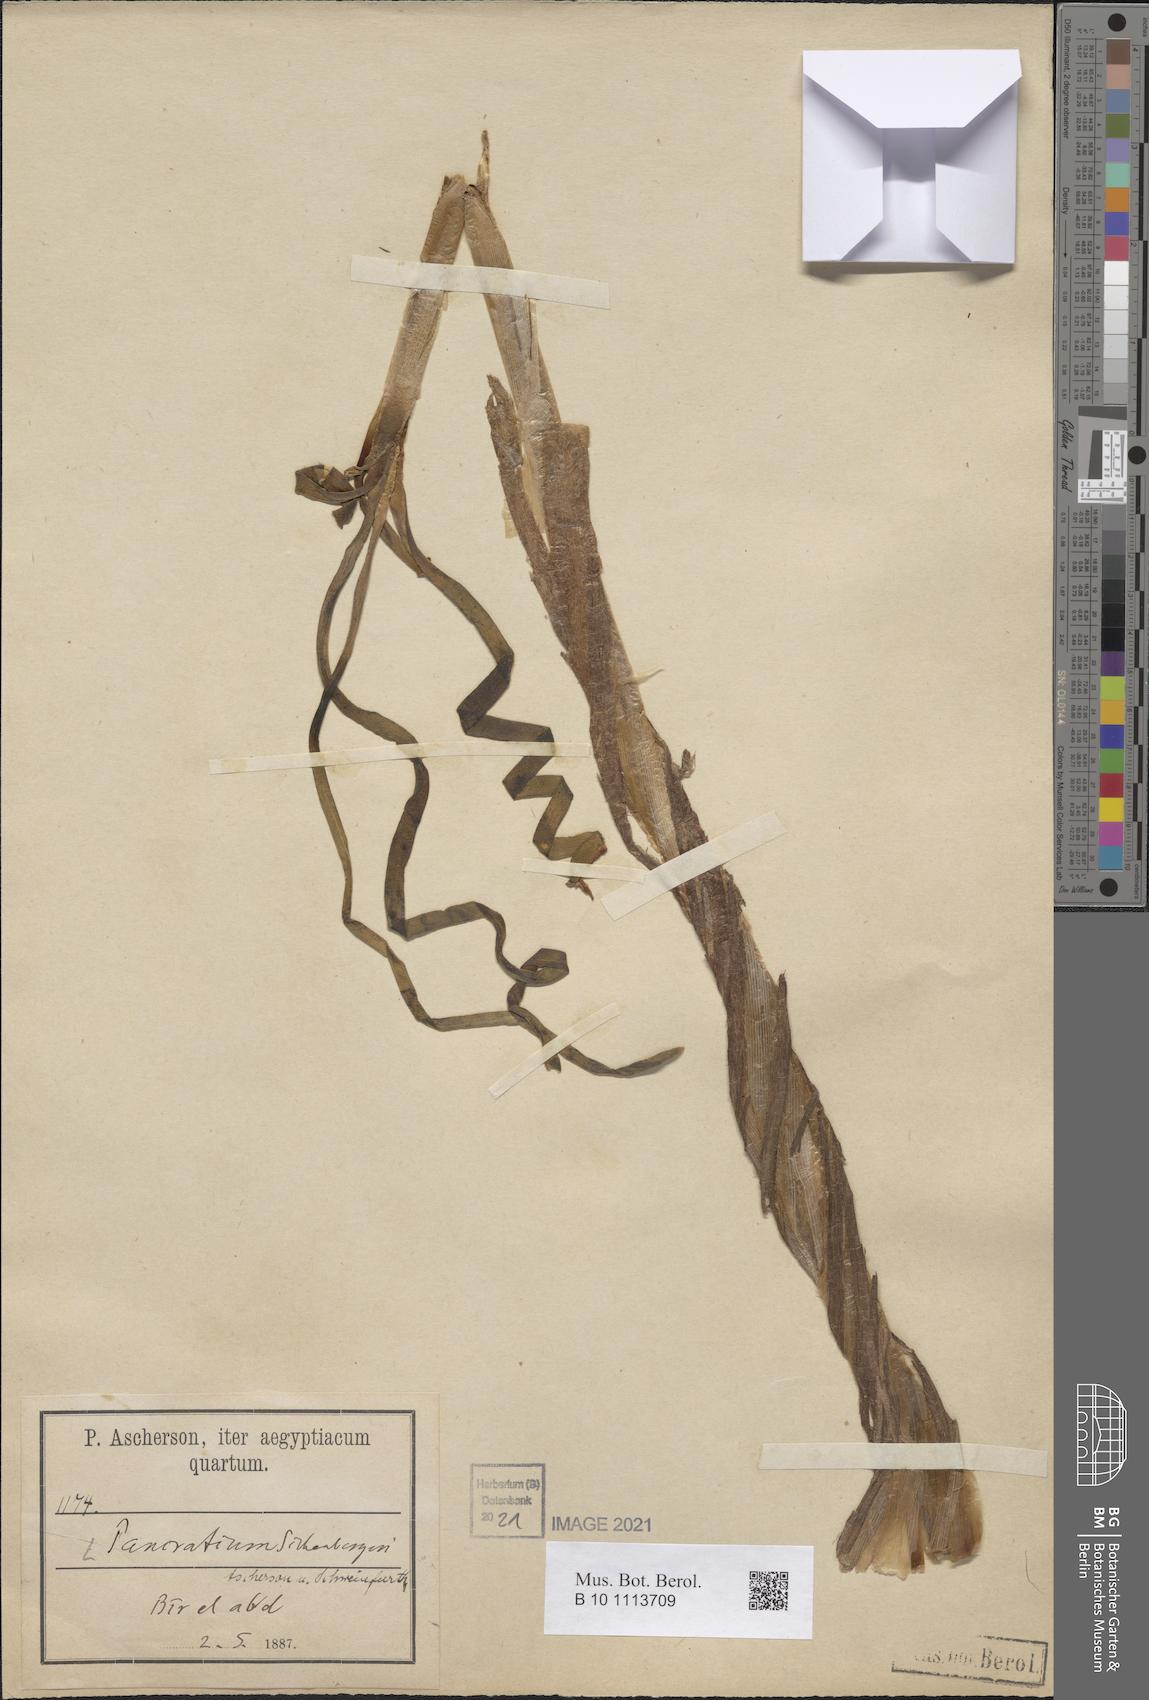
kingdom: Plantae
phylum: Tracheophyta
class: Liliopsida
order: Asparagales
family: Amaryllidaceae
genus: Pancratium
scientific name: Pancratium sickenbergeri
